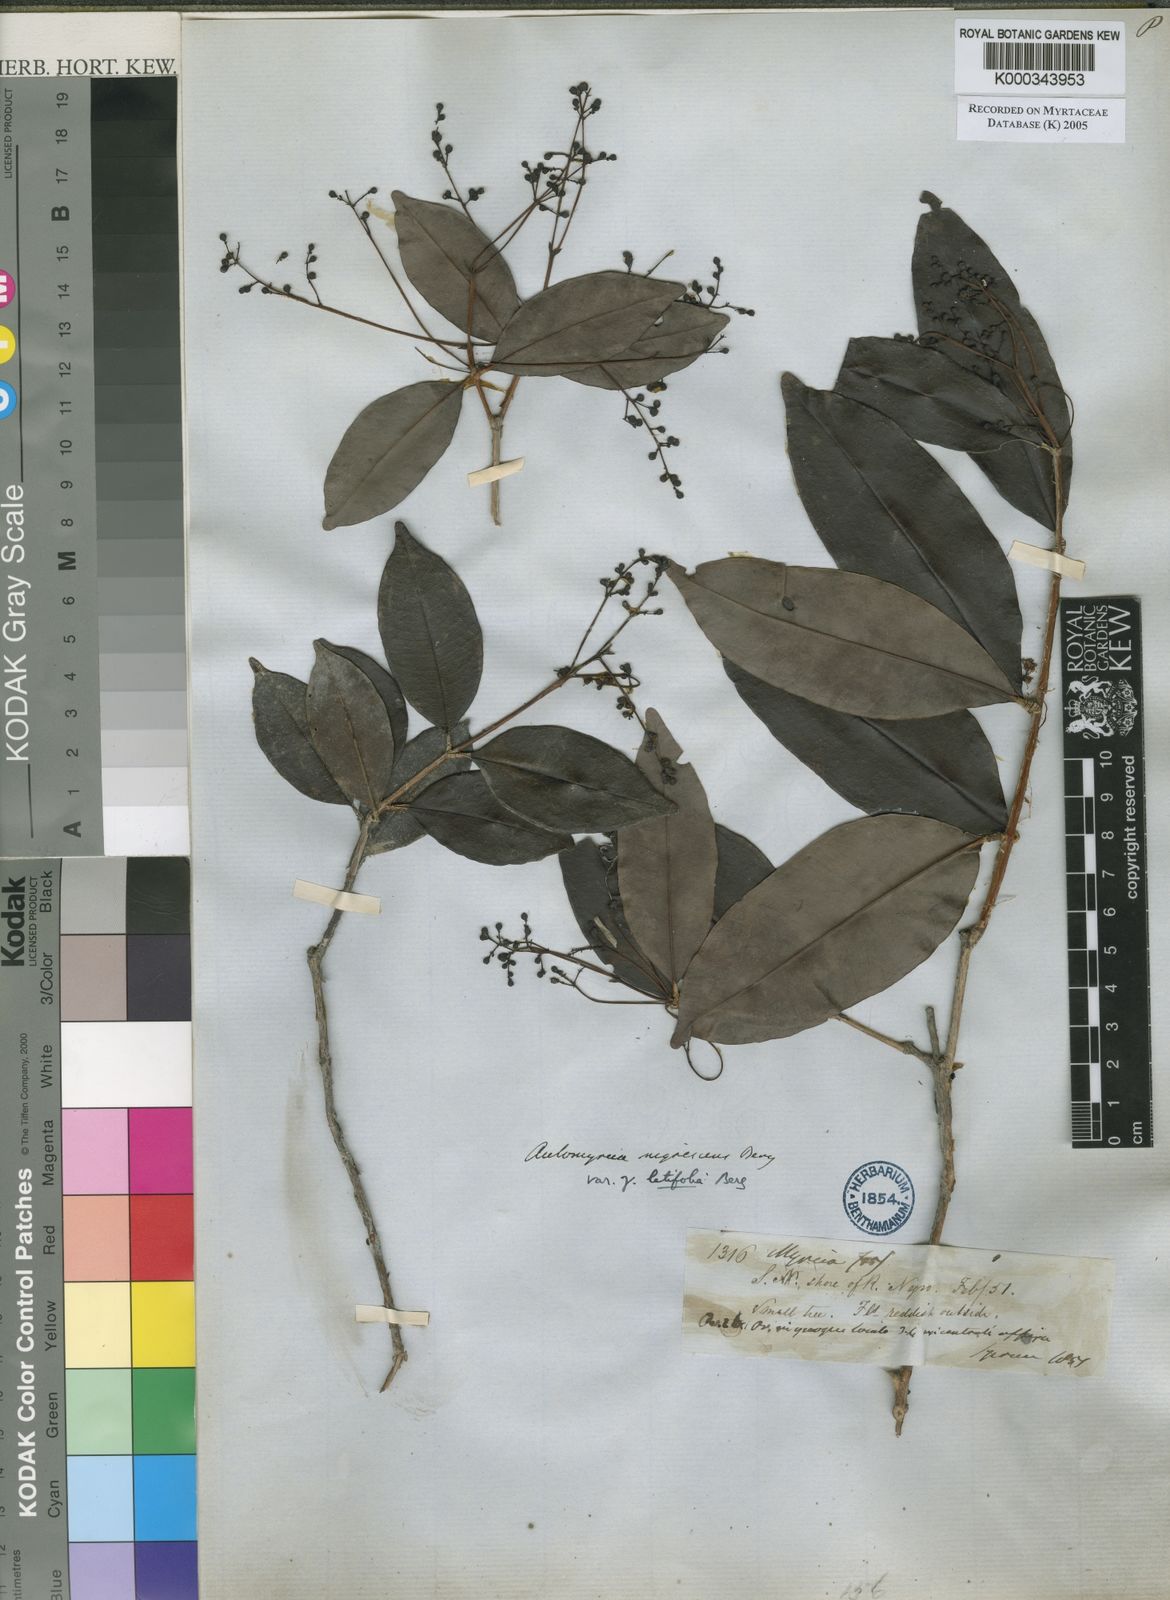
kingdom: Plantae
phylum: Tracheophyta
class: Magnoliopsida
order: Myrtales
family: Myrtaceae
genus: Myrcia
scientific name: Myrcia umbraticola
